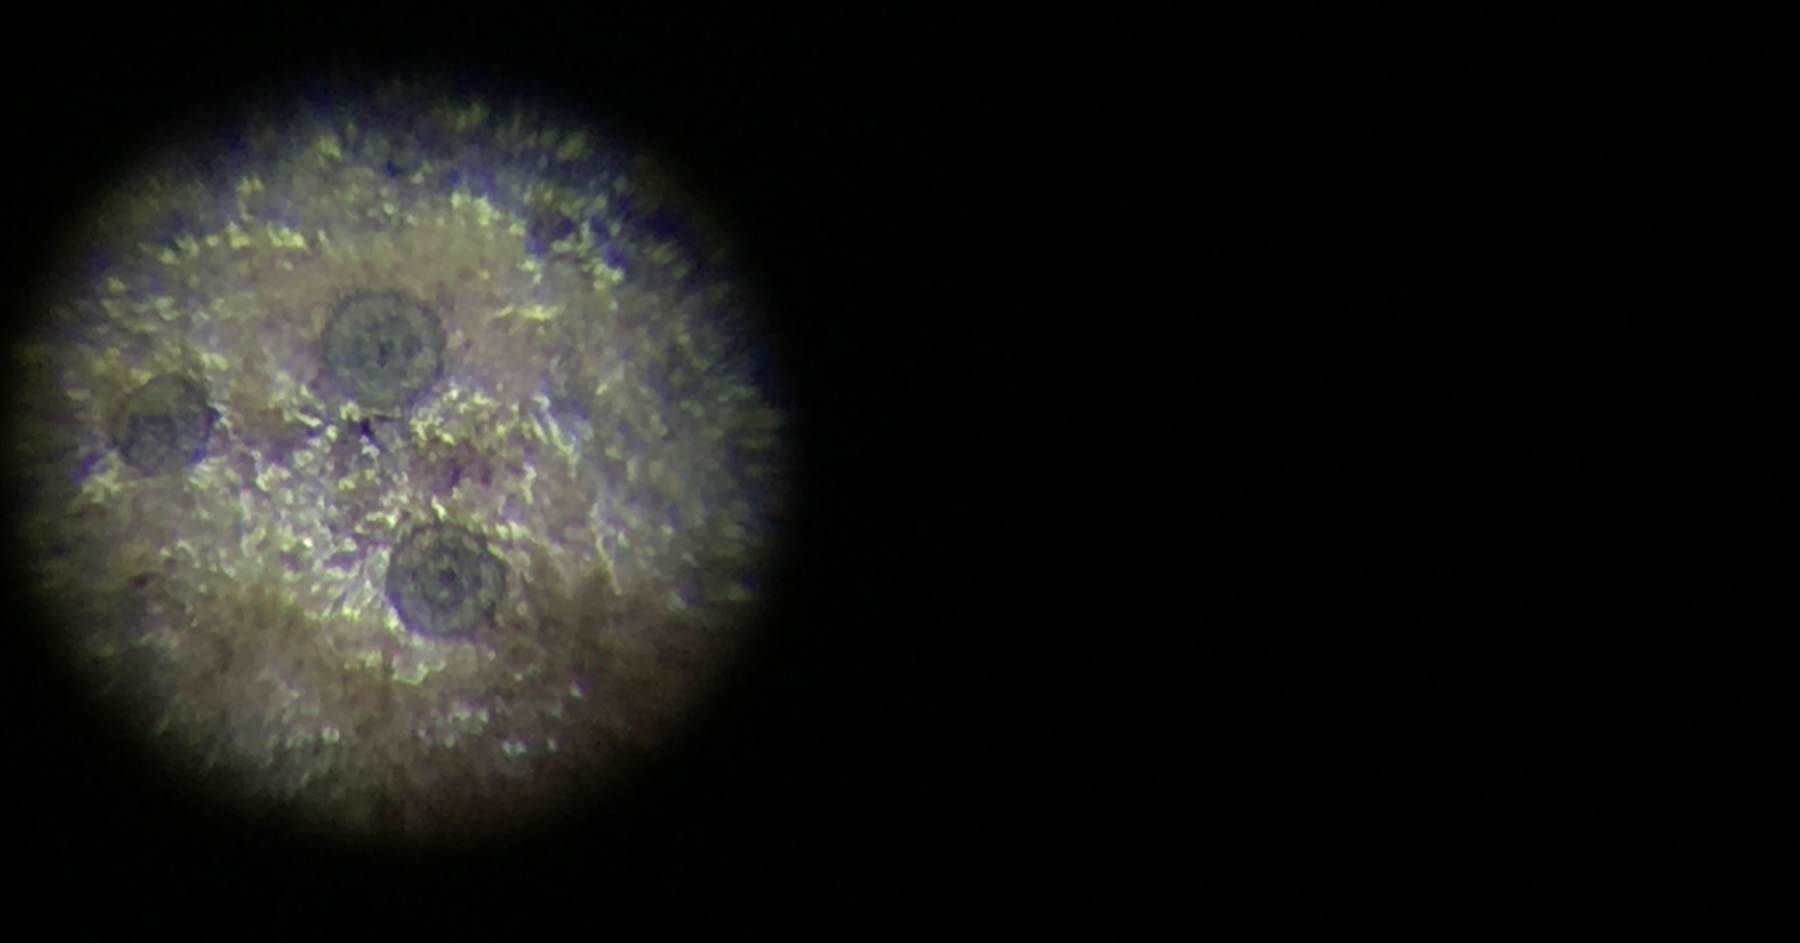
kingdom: Fungi
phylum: Ascomycota
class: Dothideomycetes
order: Microthyriales
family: Microthyriaceae
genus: Microthyrium
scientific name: Microthyrium ciliatum
